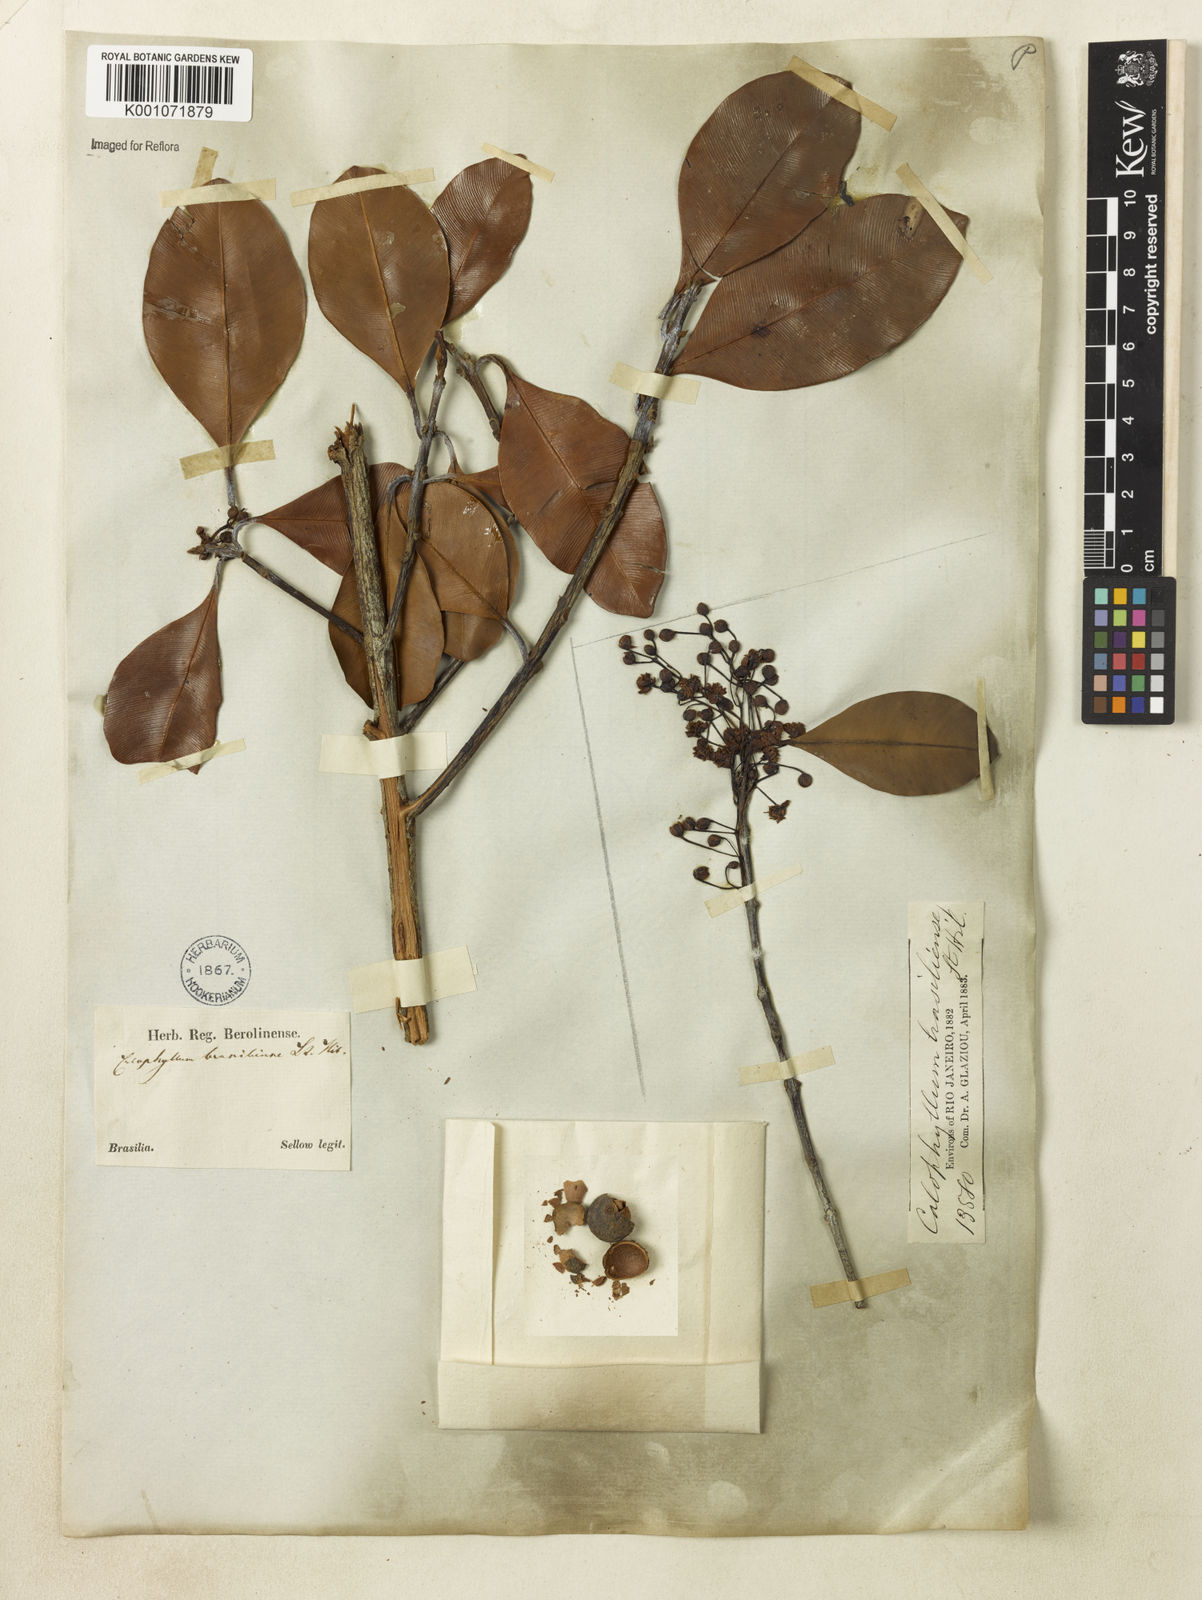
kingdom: Plantae
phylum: Tracheophyta
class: Magnoliopsida
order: Malpighiales
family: Calophyllaceae
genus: Calophyllum
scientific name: Calophyllum brasiliense
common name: Santa maria
